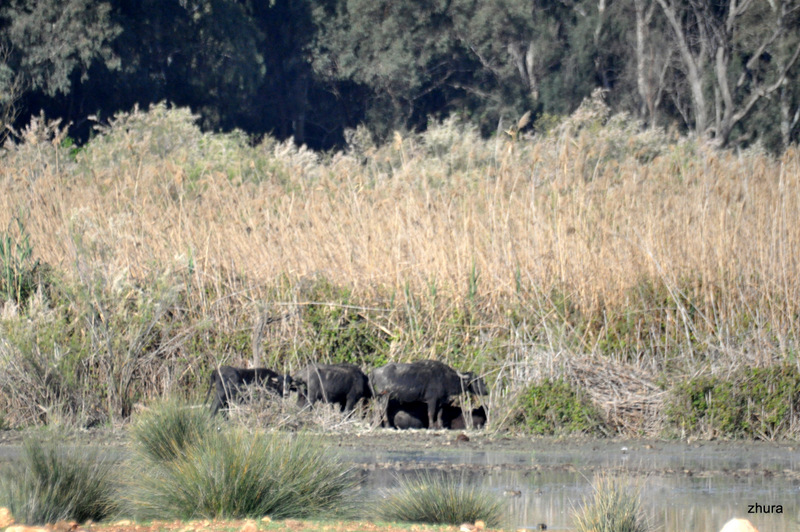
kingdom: Animalia
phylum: Chordata
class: Mammalia
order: Artiodactyla
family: Bovidae
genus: Bubalus
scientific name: Bubalus bubalis
